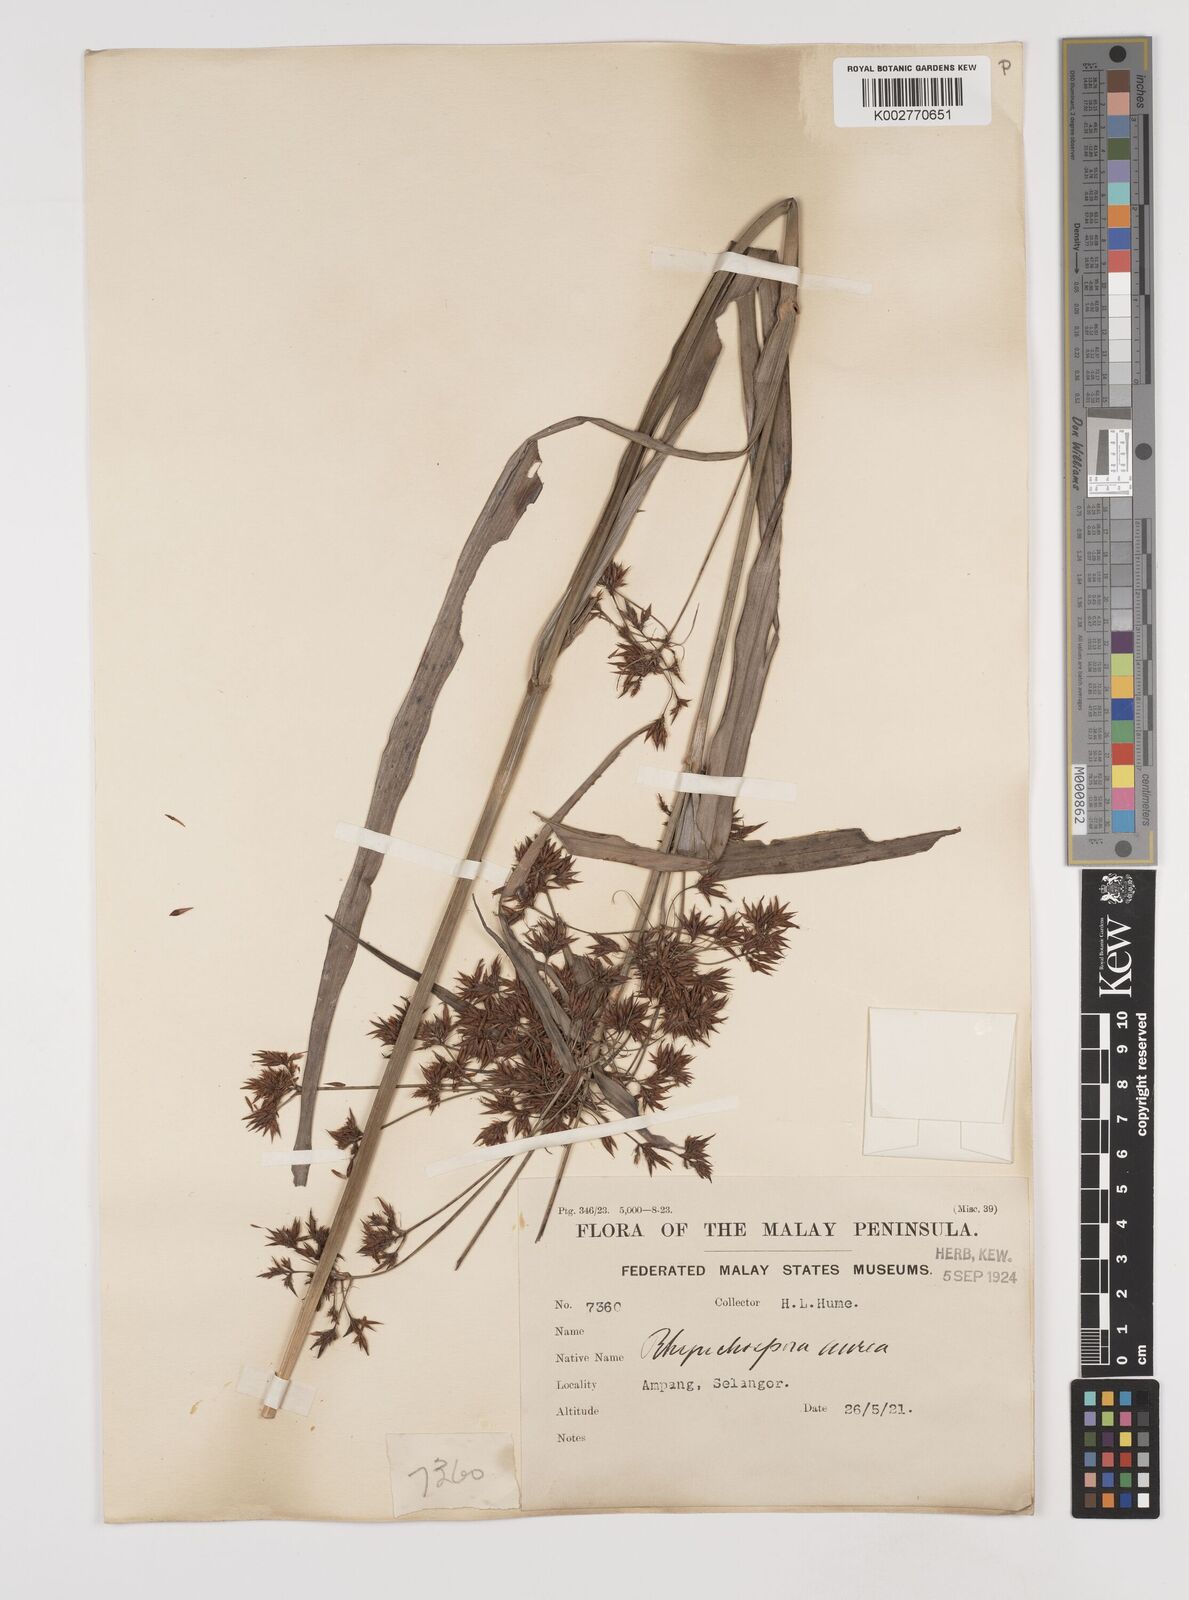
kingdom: Plantae
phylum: Tracheophyta
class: Liliopsida
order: Poales
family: Cyperaceae
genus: Rhynchospora
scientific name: Rhynchospora corymbosa
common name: Golden beak sedge
